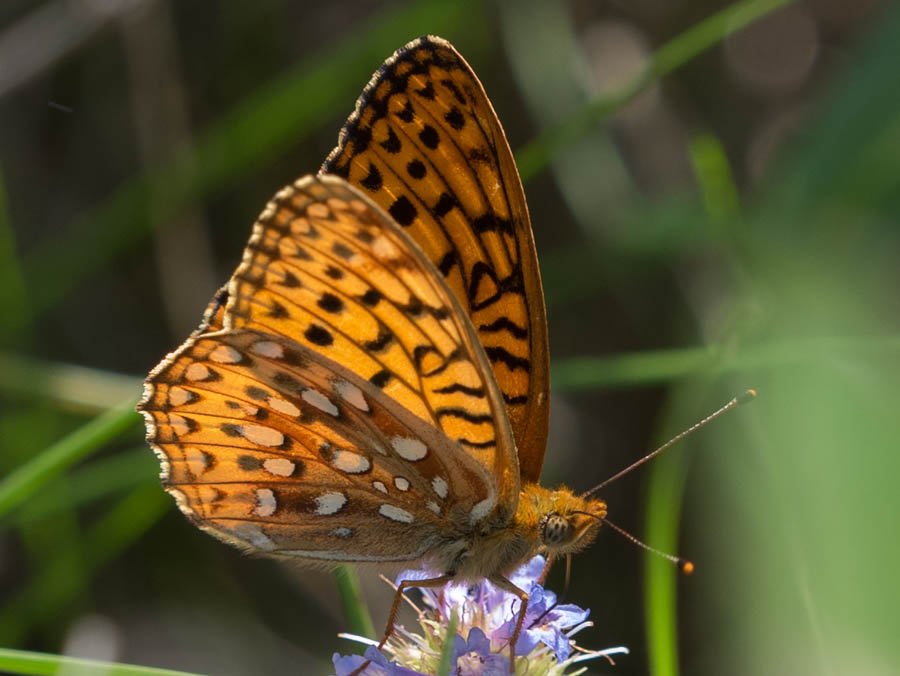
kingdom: Animalia
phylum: Arthropoda
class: Insecta
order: Lepidoptera
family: Nymphalidae
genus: Speyeria
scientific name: Speyeria atlantis
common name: Northwestern Fritillary
